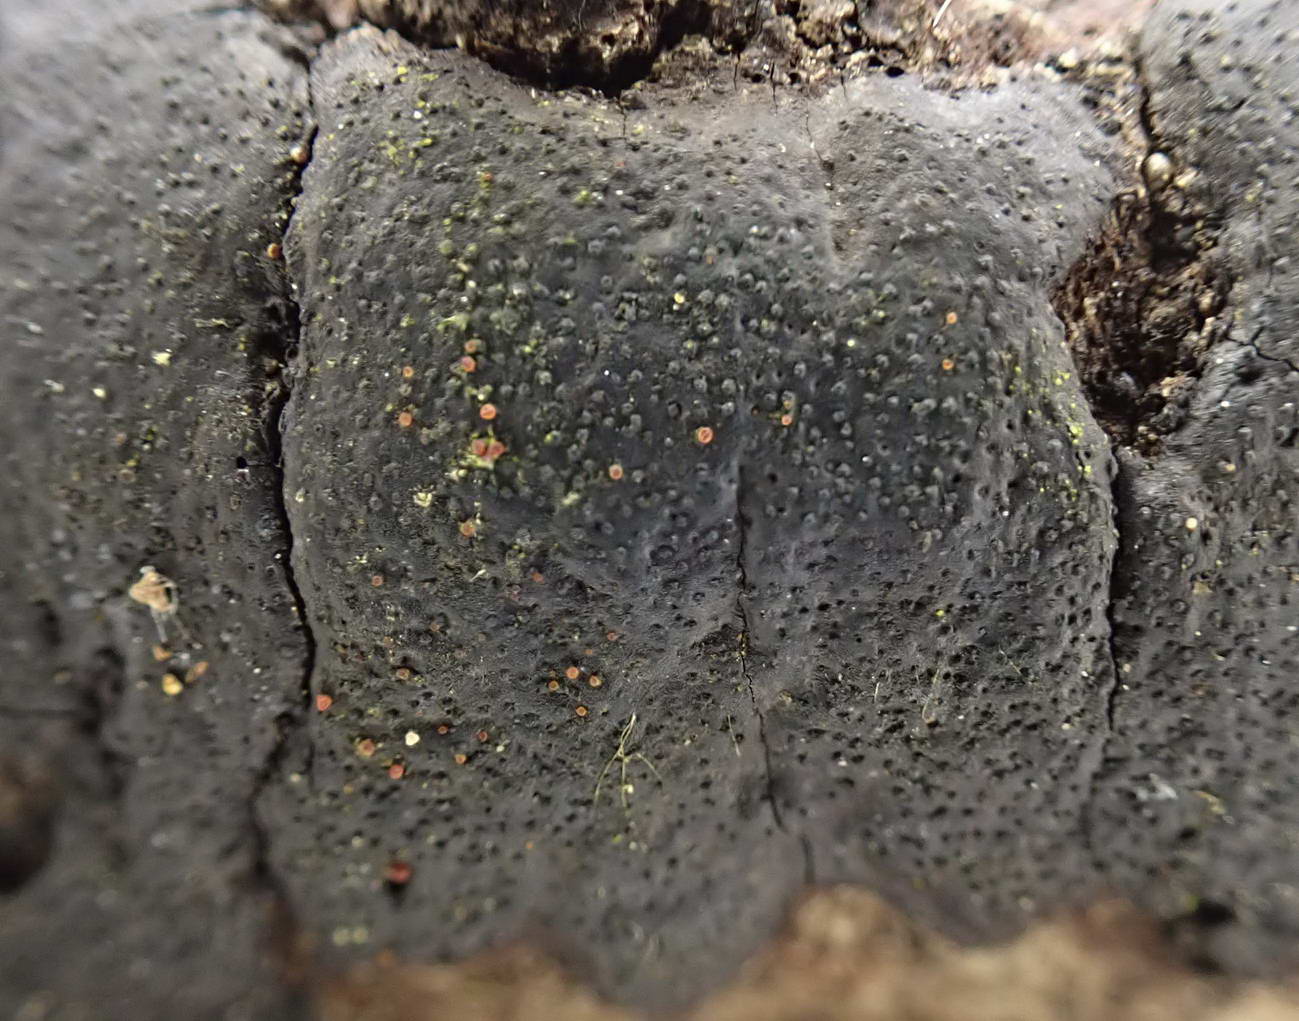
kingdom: Fungi
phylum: Ascomycota
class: Sordariomycetes
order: Hypocreales
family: Nectriaceae
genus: Dialonectria
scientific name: Dialonectria episphaeria
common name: kulskorpe-cinnobersvamp
